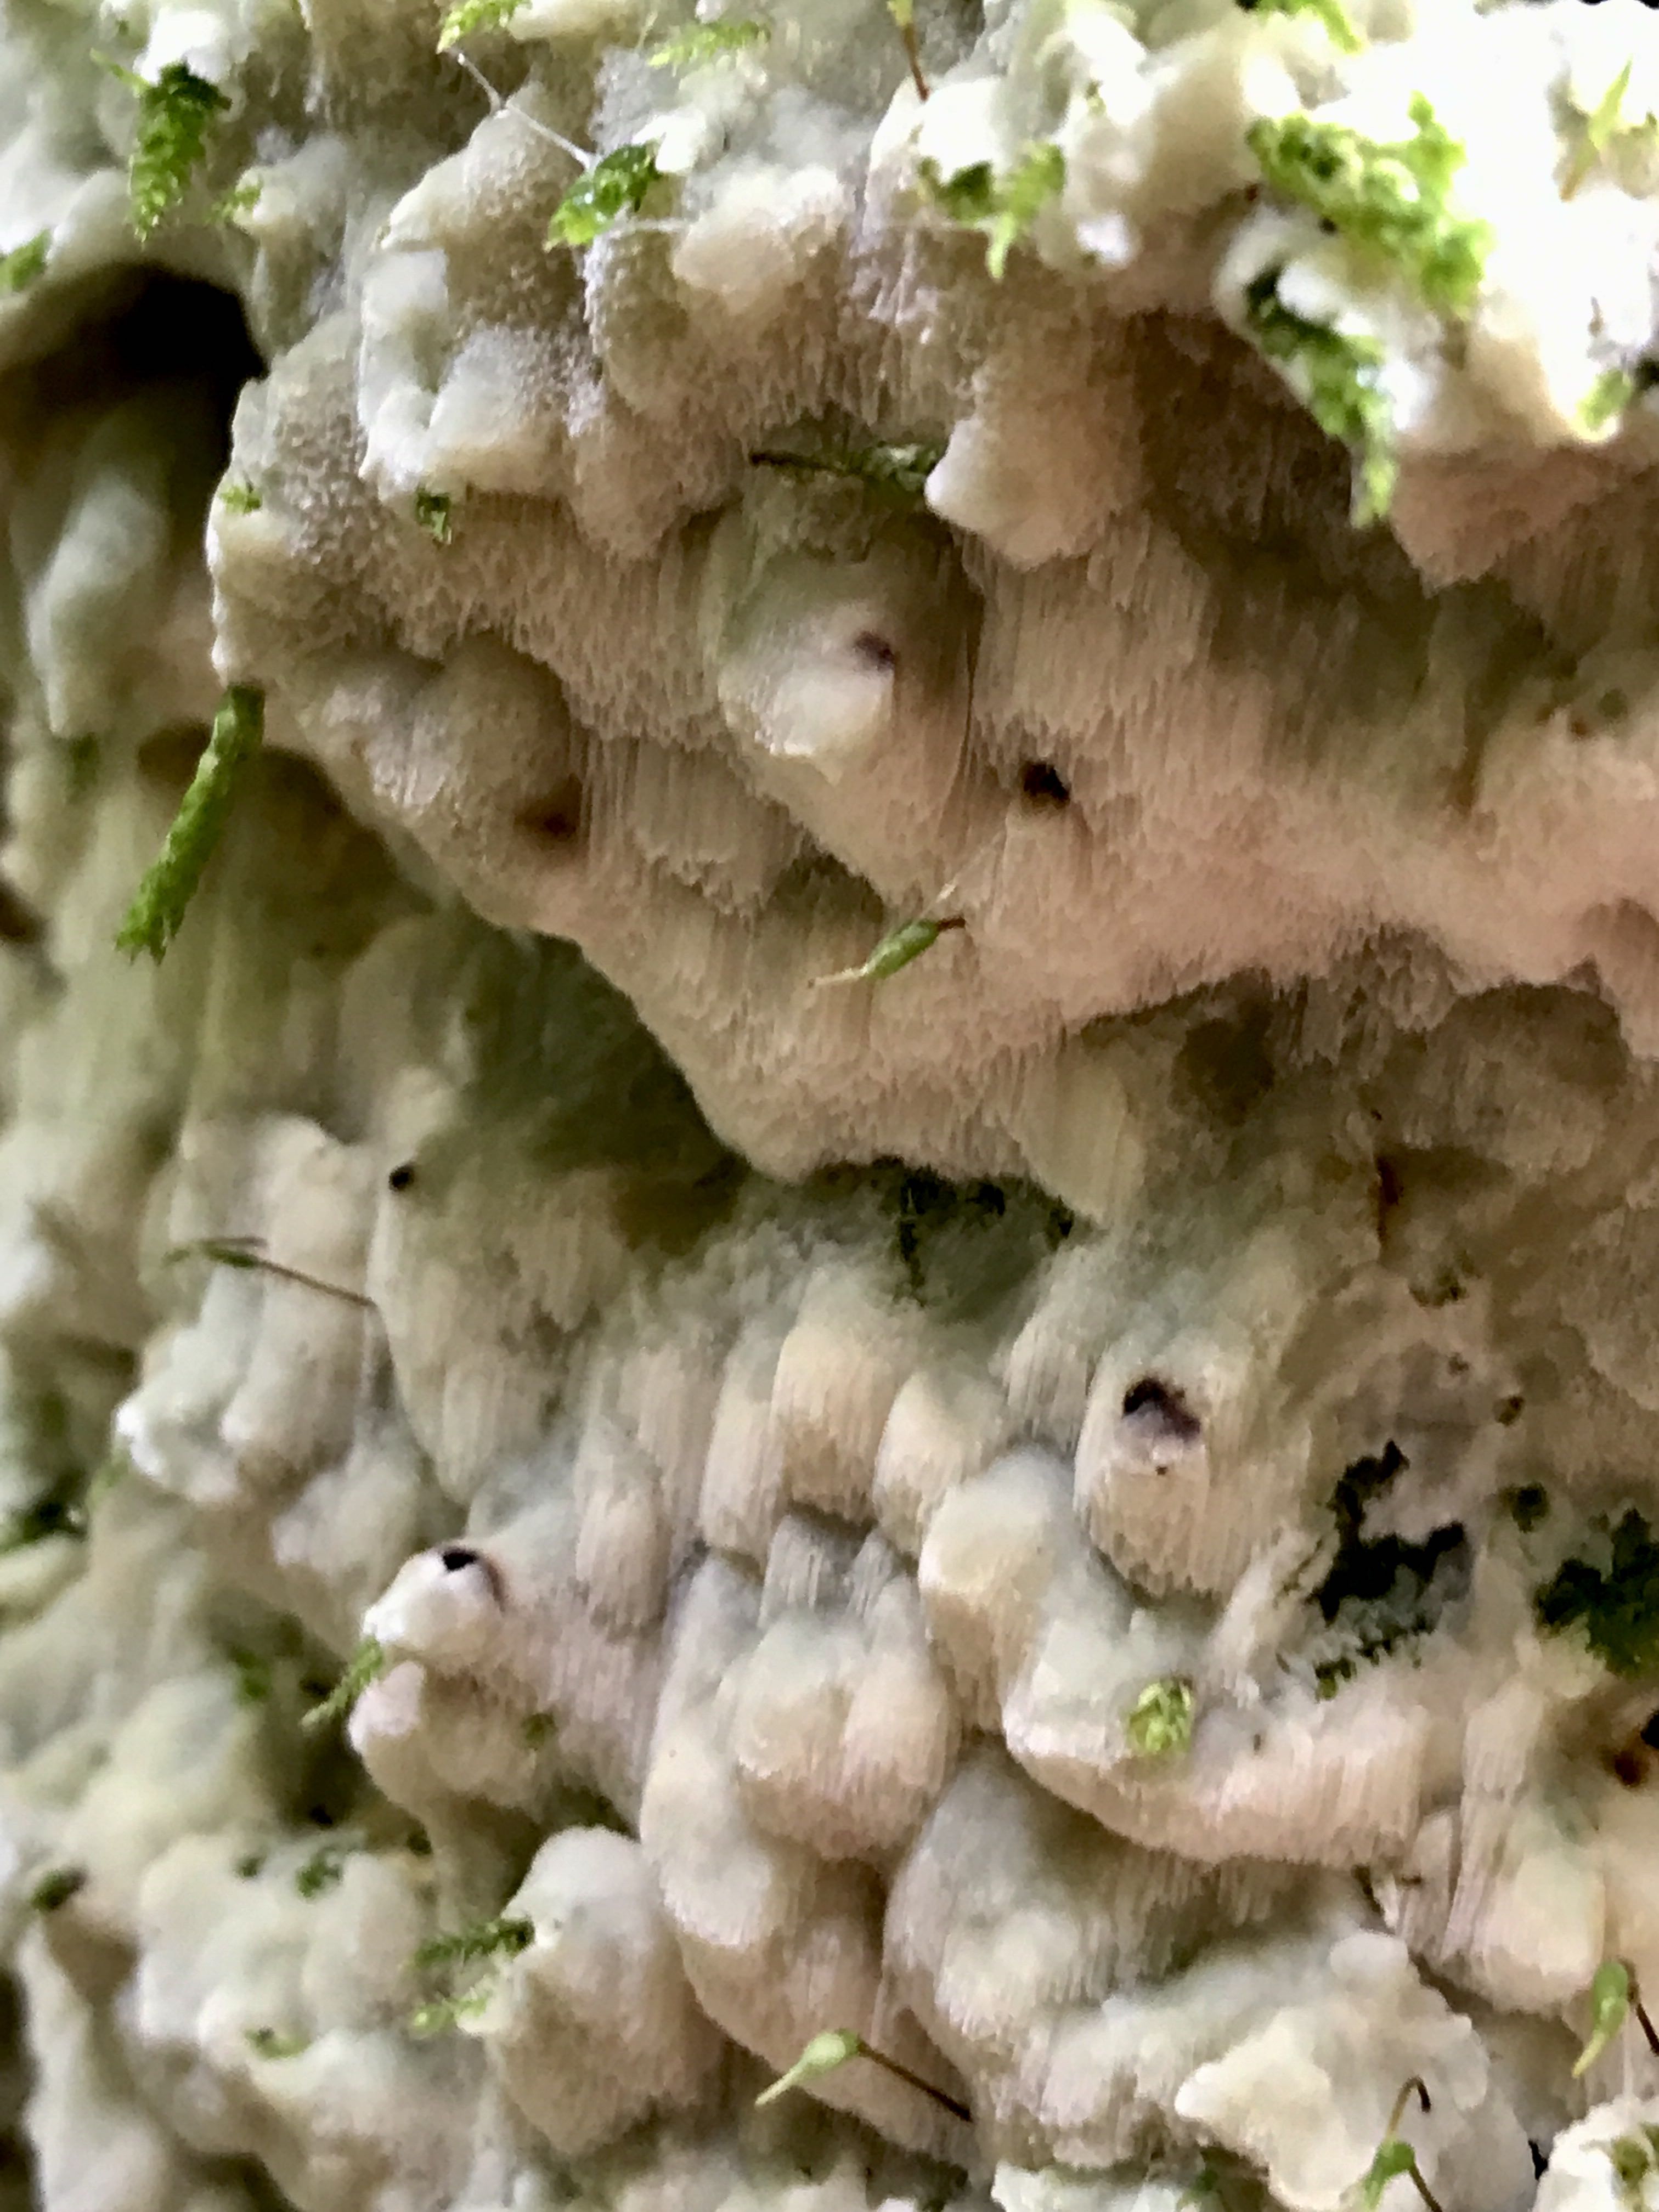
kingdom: Fungi
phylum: Basidiomycota
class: Agaricomycetes
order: Polyporales
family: Meruliaceae
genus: Physisporinus
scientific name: Physisporinus vitreus
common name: mastesvamp
